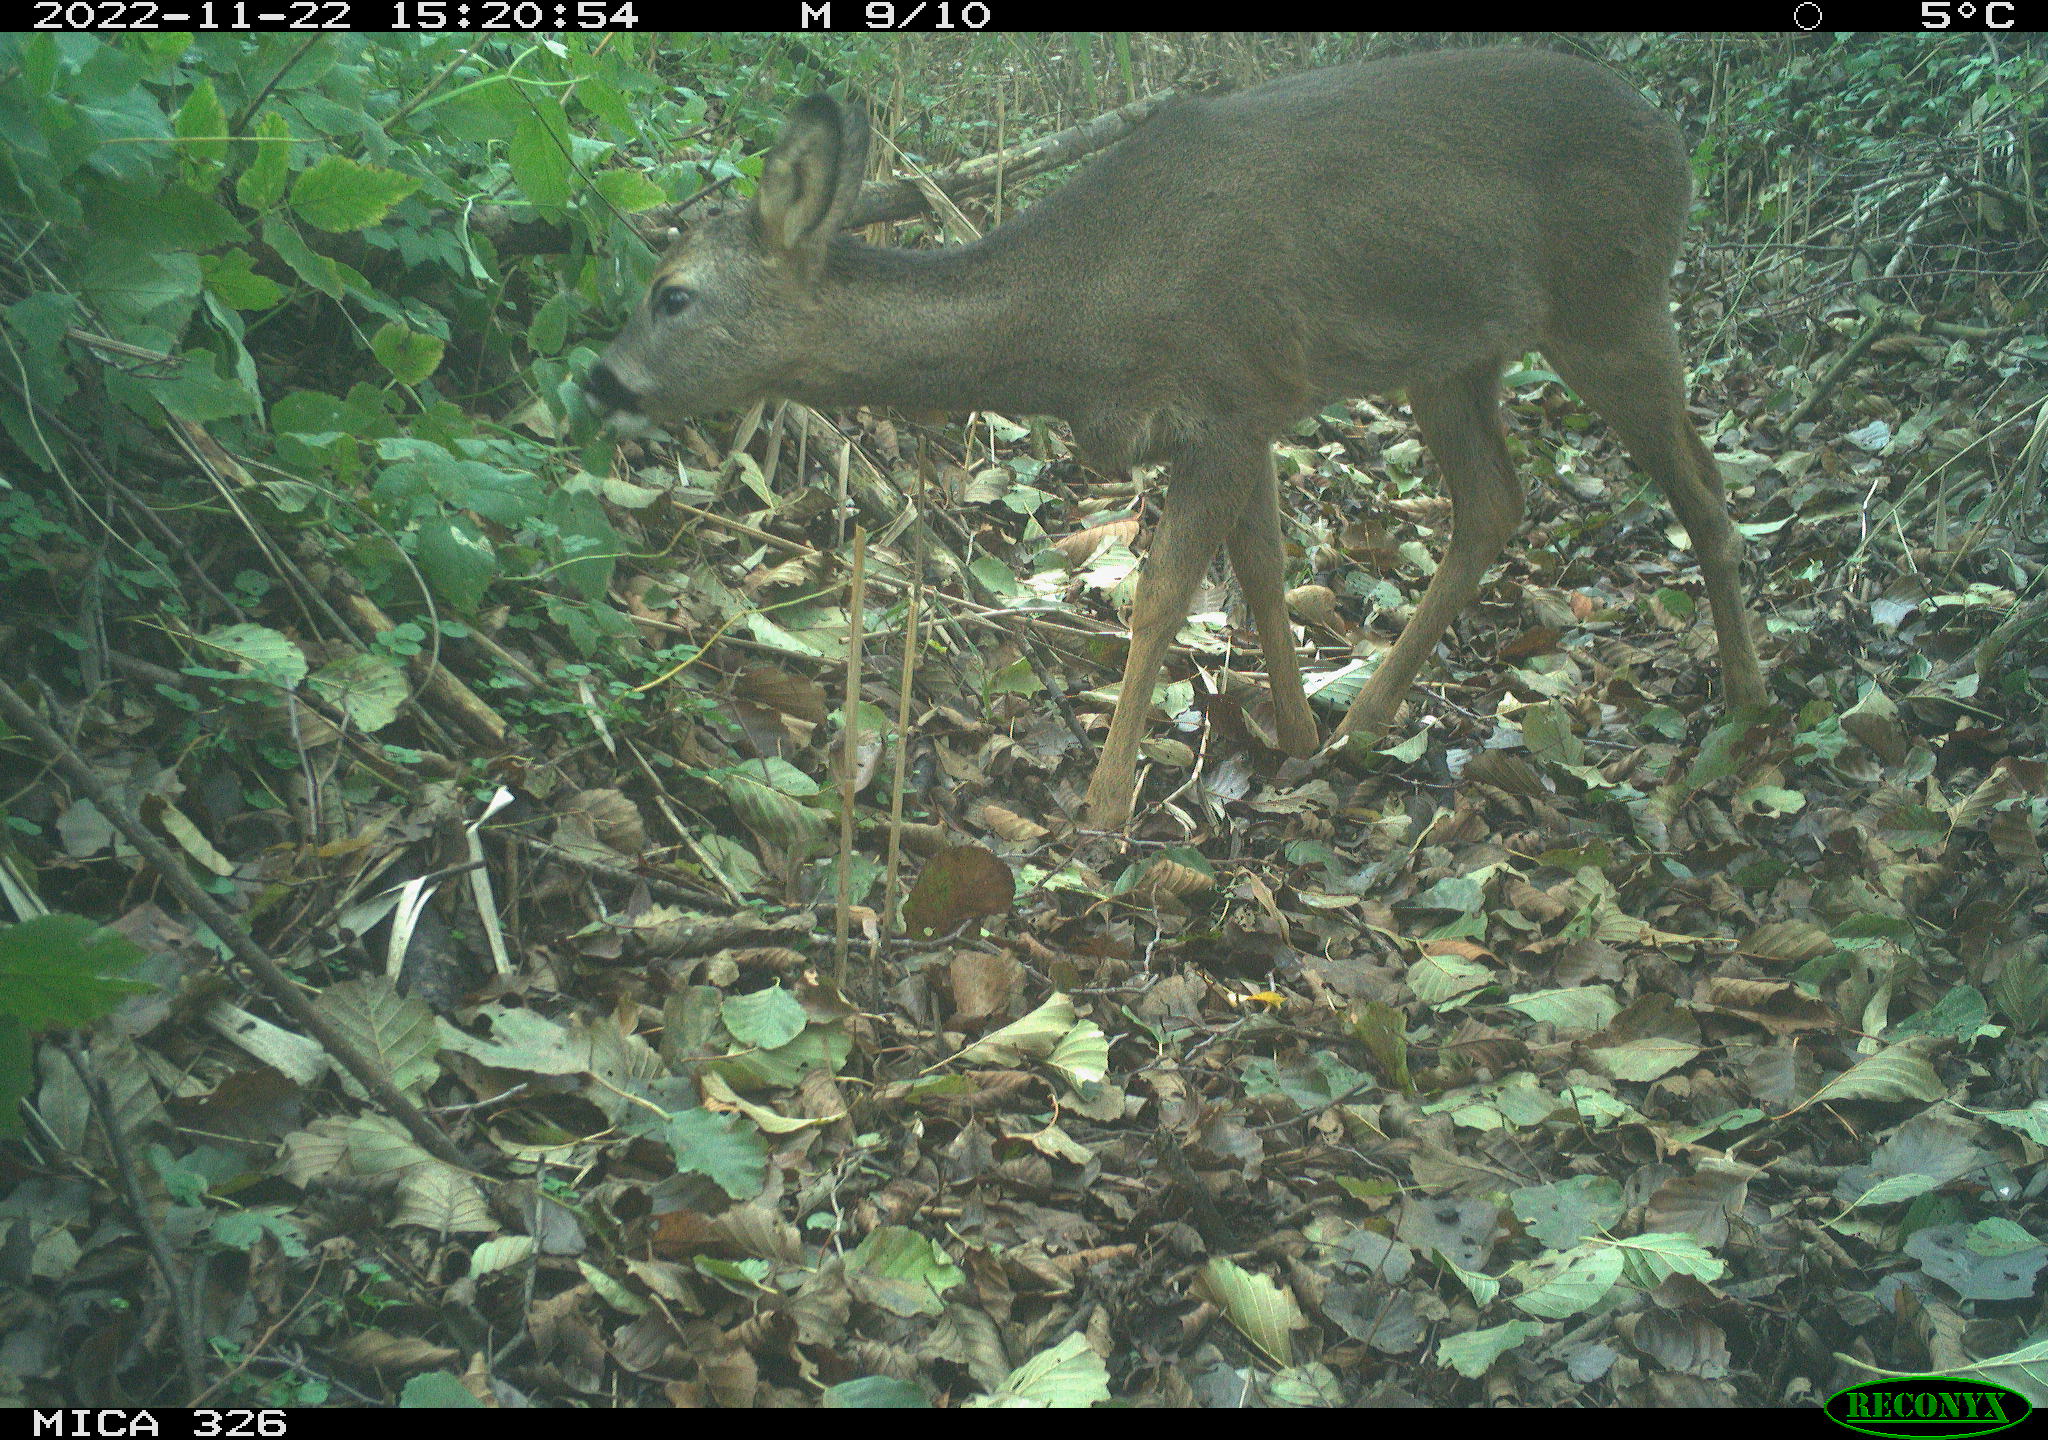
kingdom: Animalia
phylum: Chordata
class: Mammalia
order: Artiodactyla
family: Cervidae
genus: Capreolus
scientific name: Capreolus capreolus
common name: Western roe deer
